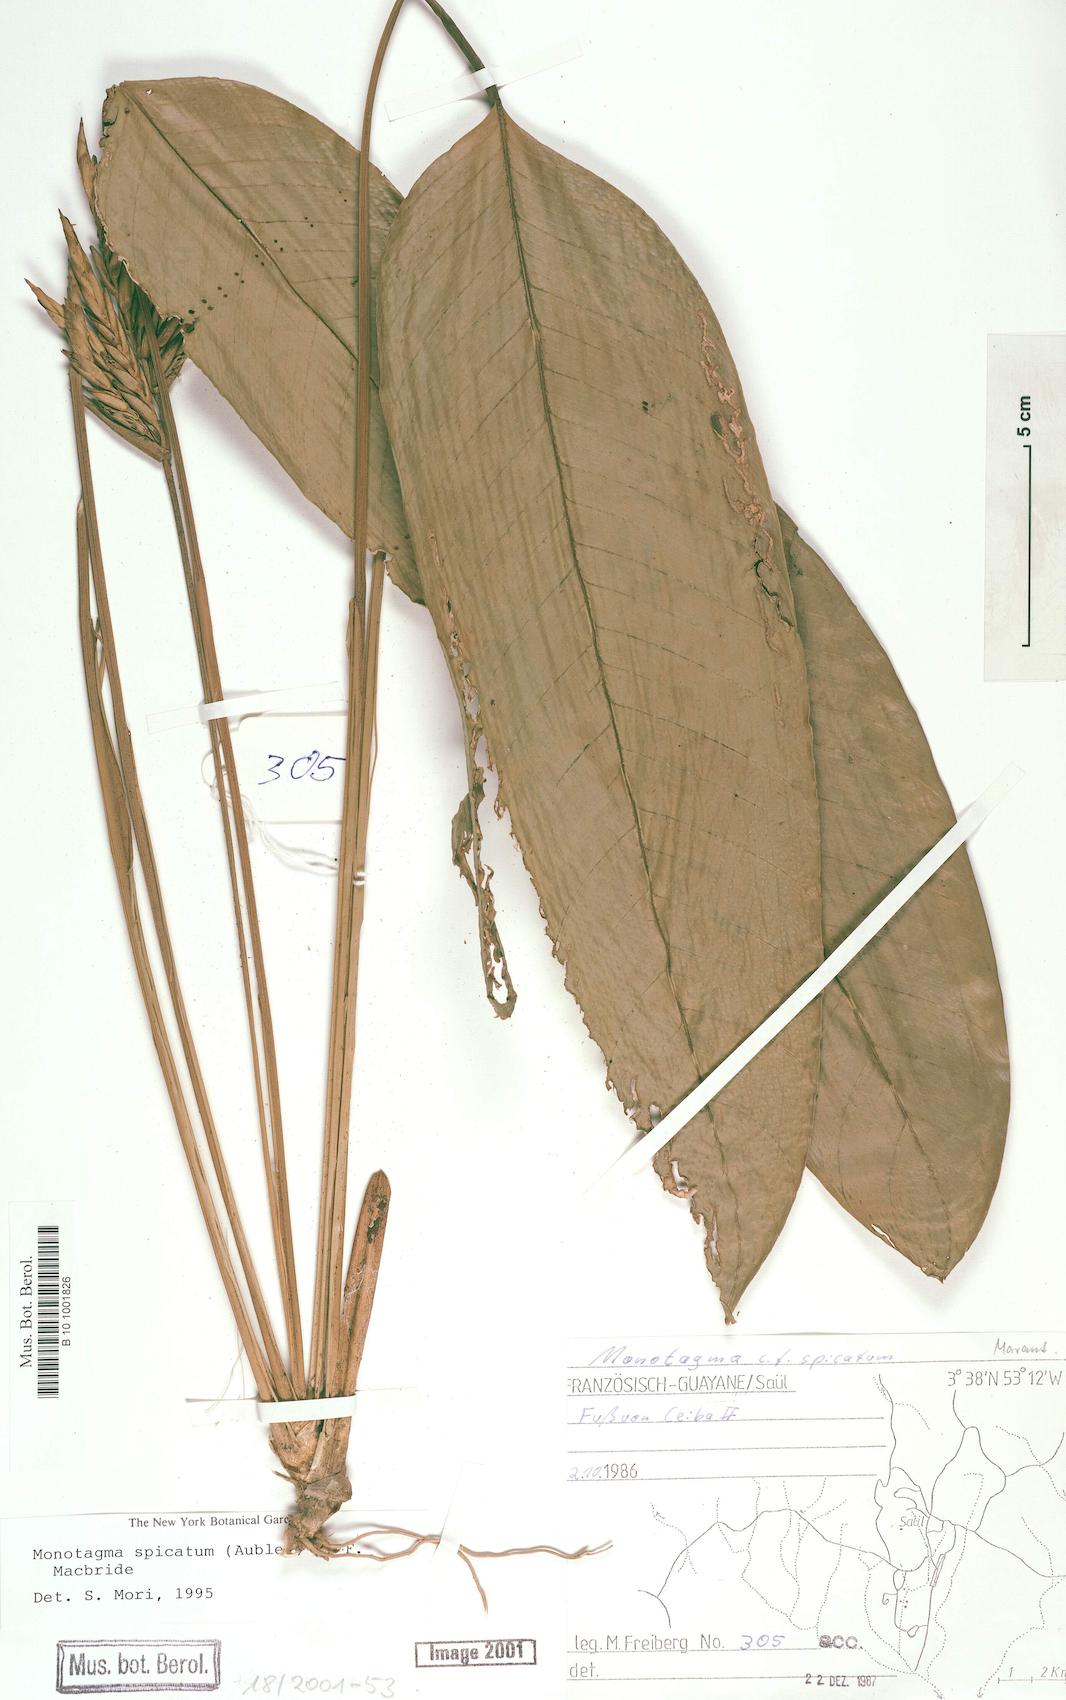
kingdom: Plantae
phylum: Tracheophyta
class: Liliopsida
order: Zingiberales
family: Marantaceae
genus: Monotagma
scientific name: Monotagma spicatum
